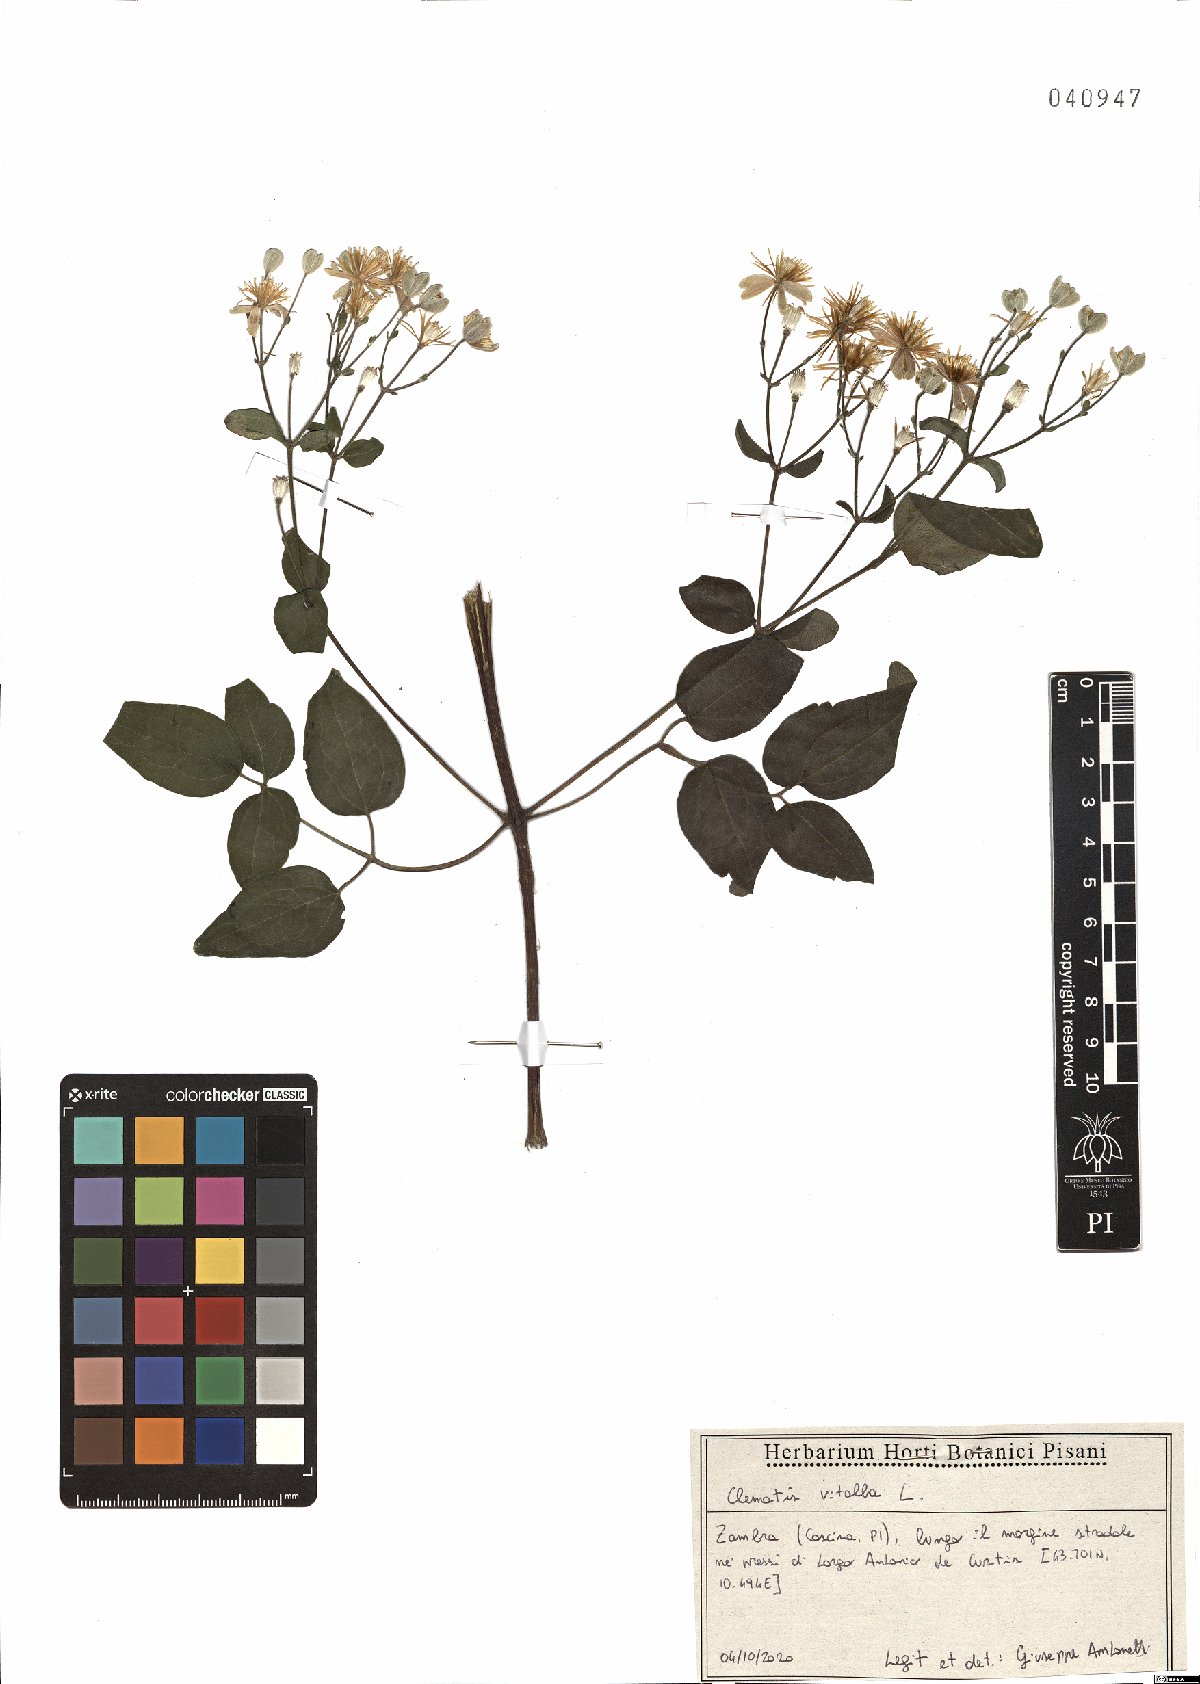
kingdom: Plantae
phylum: Tracheophyta
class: Magnoliopsida
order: Ranunculales
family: Ranunculaceae
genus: Clematis
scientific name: Clematis vitalba
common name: Evergreen clematis
